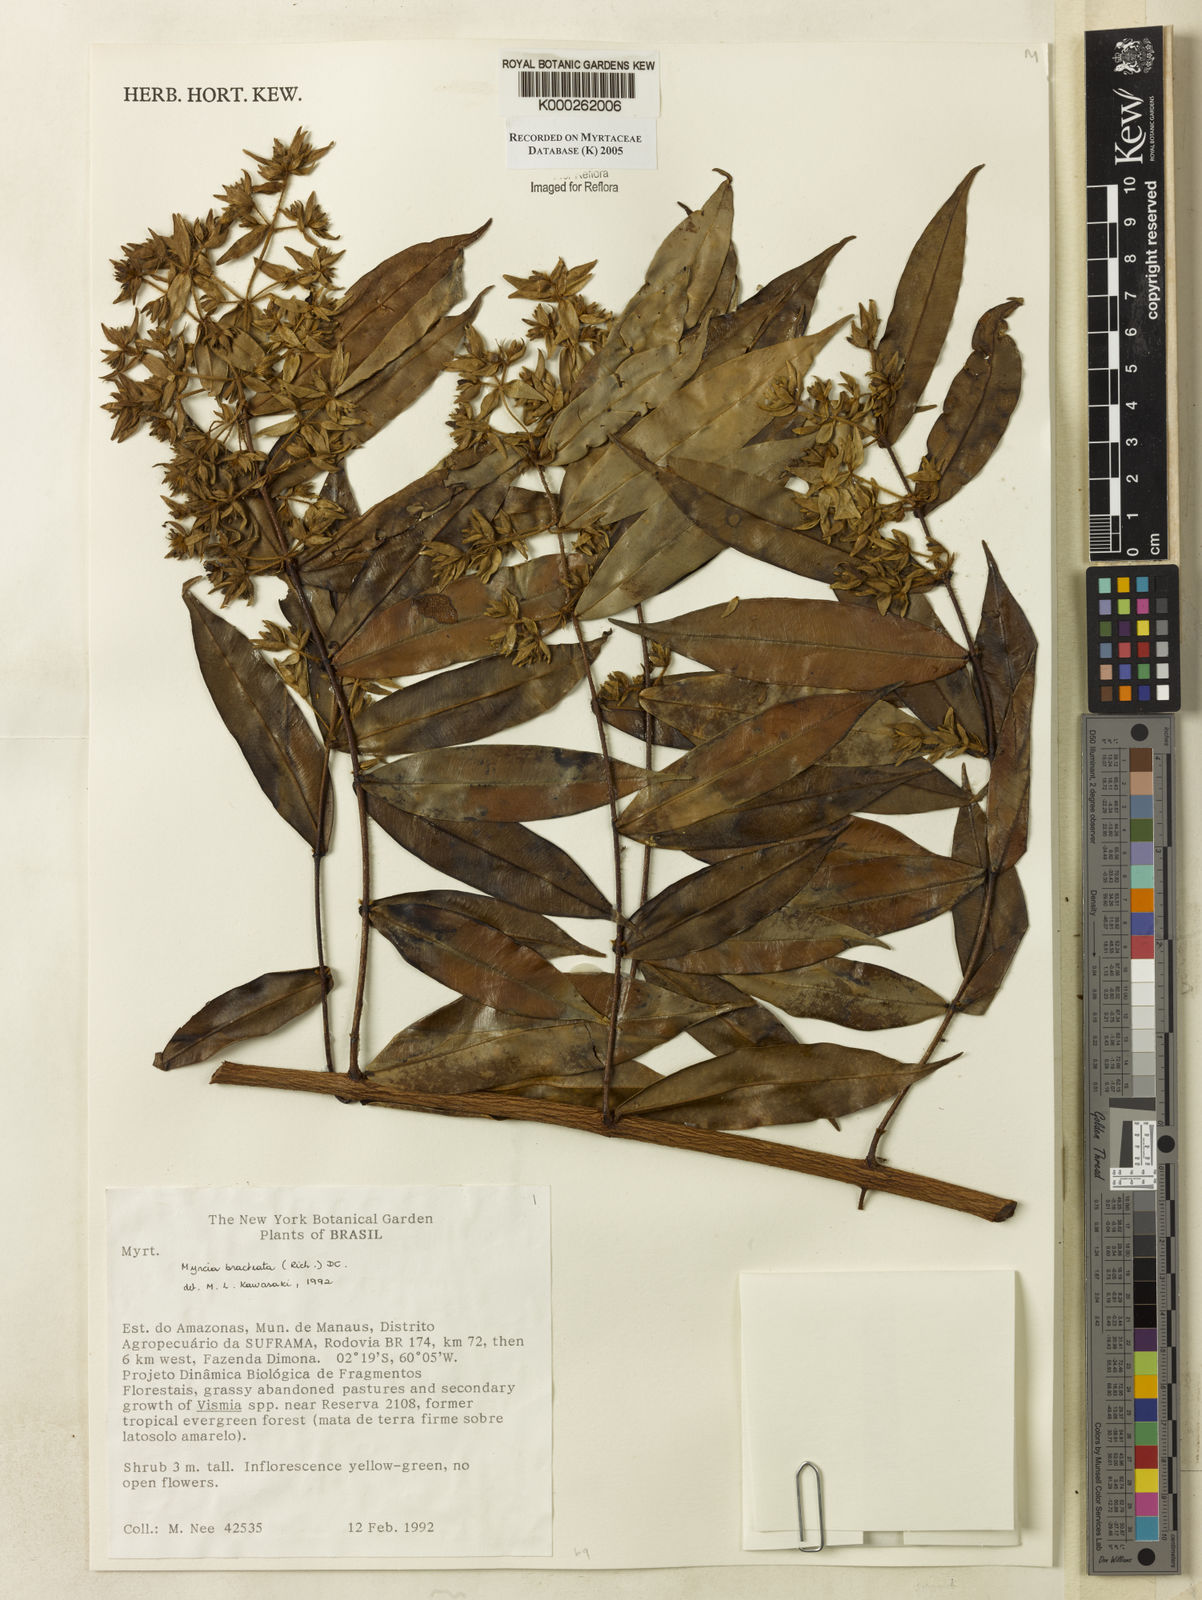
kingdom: Plantae
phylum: Tracheophyta
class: Magnoliopsida
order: Myrtales
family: Myrtaceae
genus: Myrcia
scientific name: Myrcia bracteata
